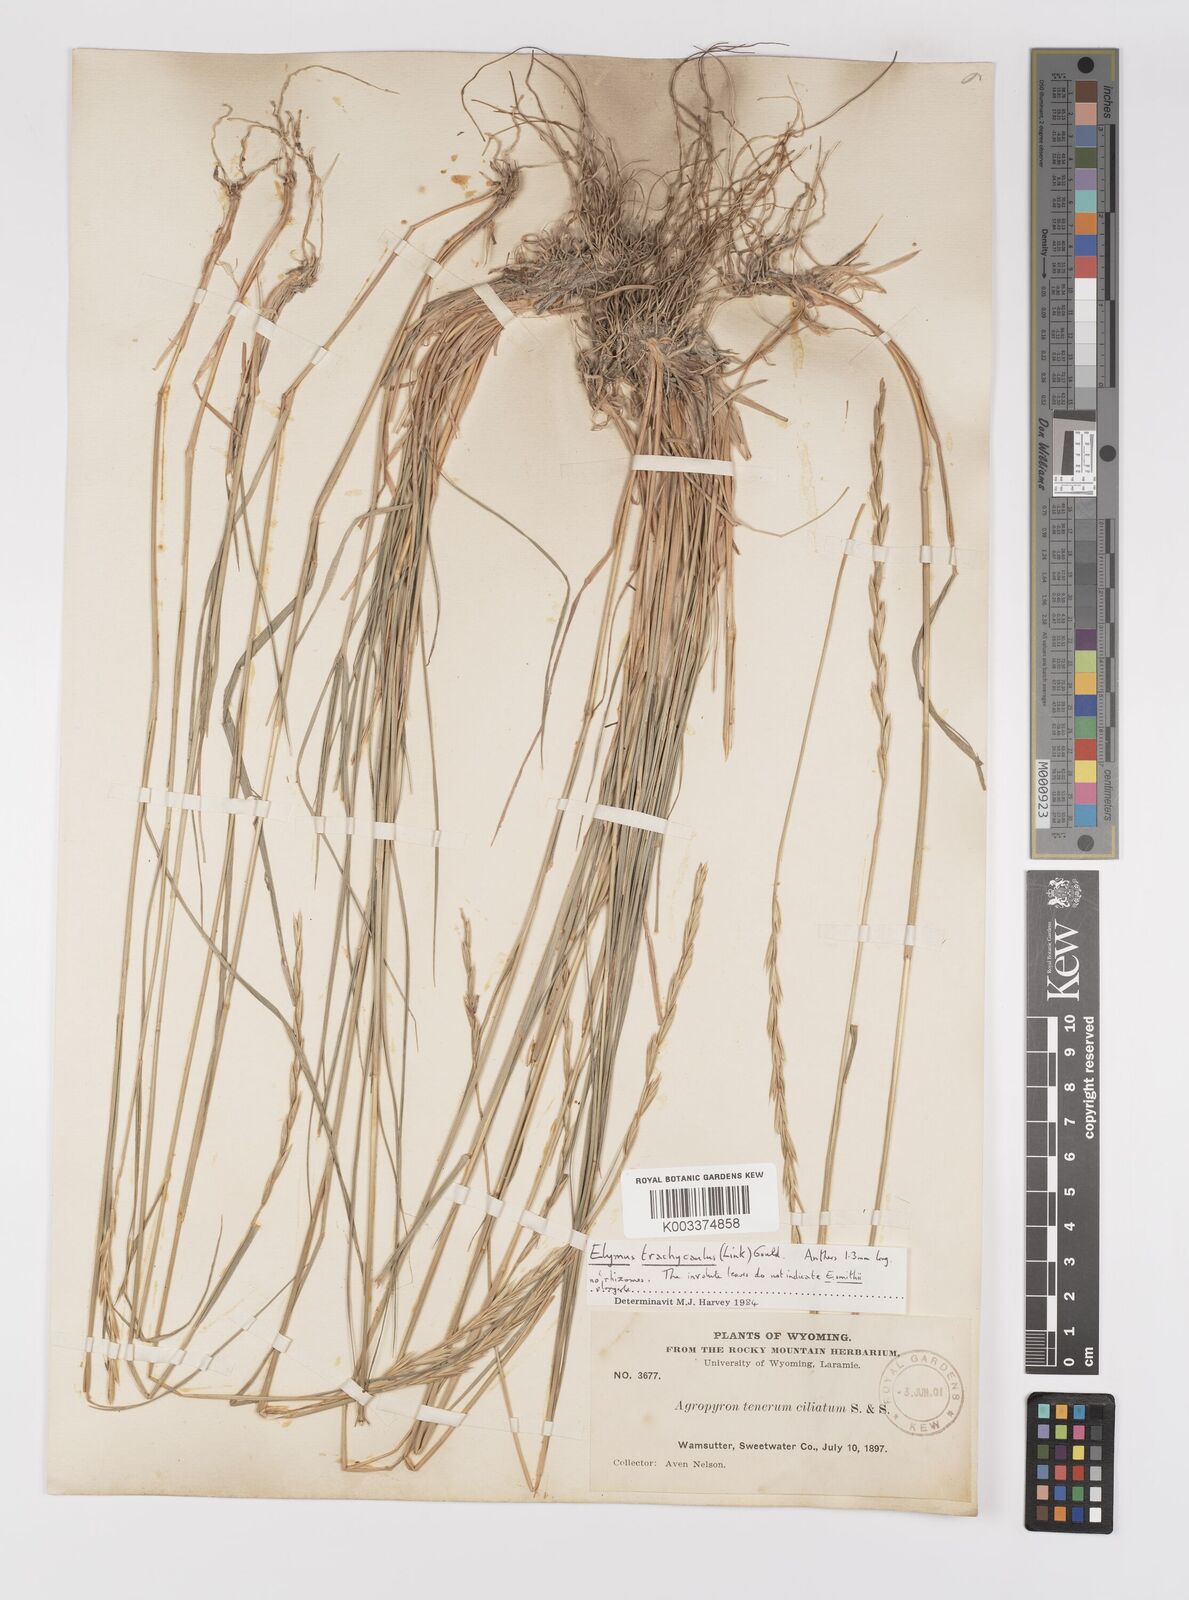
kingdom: Plantae
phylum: Tracheophyta
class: Liliopsida
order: Poales
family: Poaceae
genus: Elymus
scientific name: Elymus violaceus
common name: Arctic wheatgrass
